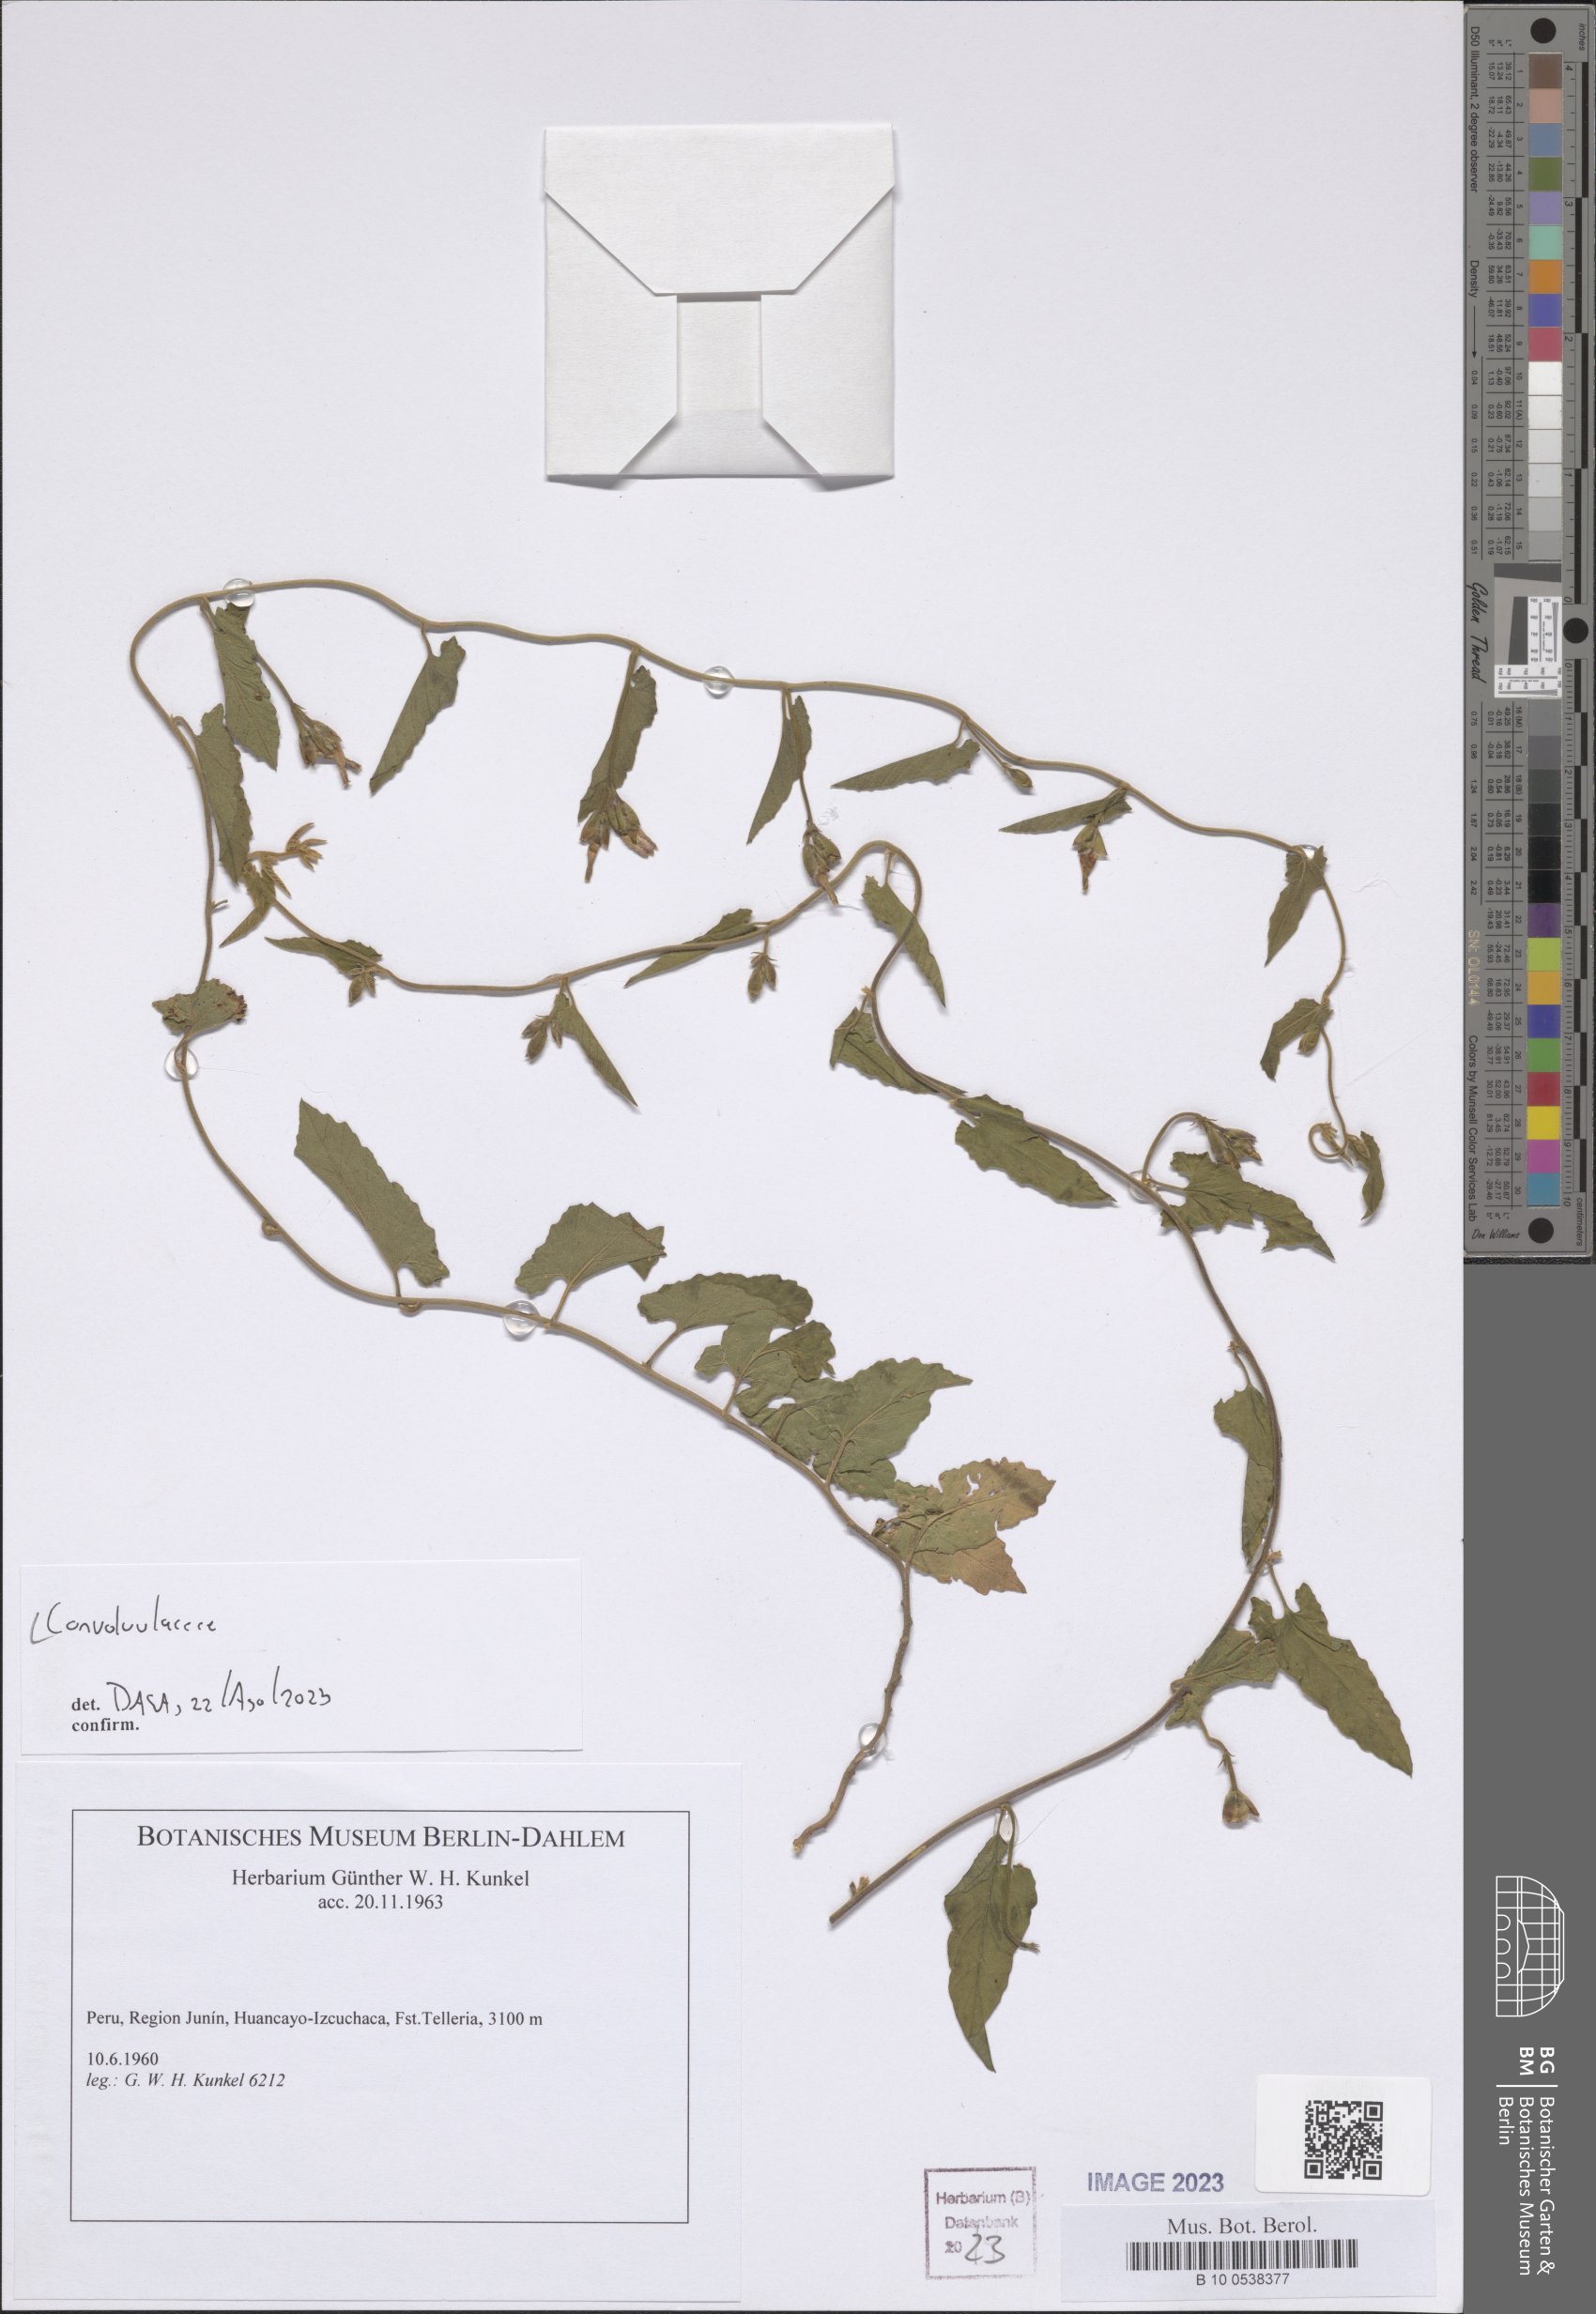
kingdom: Plantae
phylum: Tracheophyta
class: Magnoliopsida
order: Solanales
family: Convolvulaceae
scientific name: Convolvulaceae
